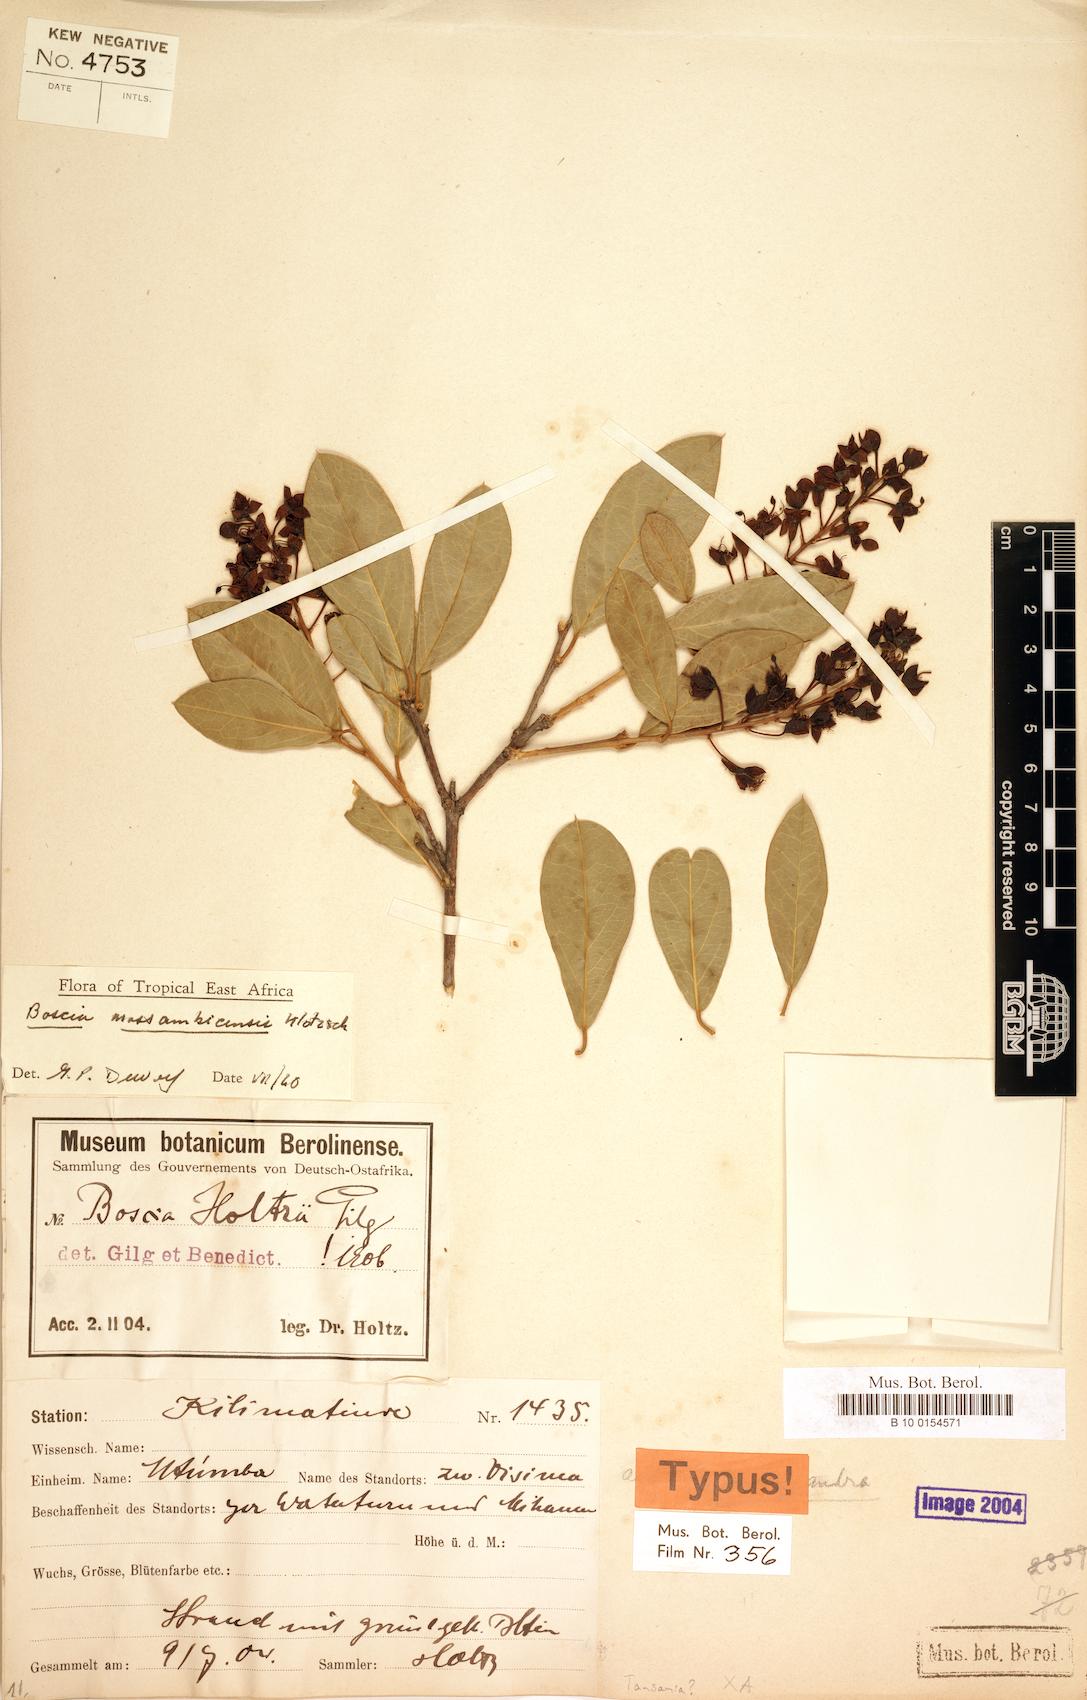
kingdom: Plantae
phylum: Tracheophyta
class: Magnoliopsida
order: Brassicales
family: Capparaceae
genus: Boscia
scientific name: Boscia mossambicensis
